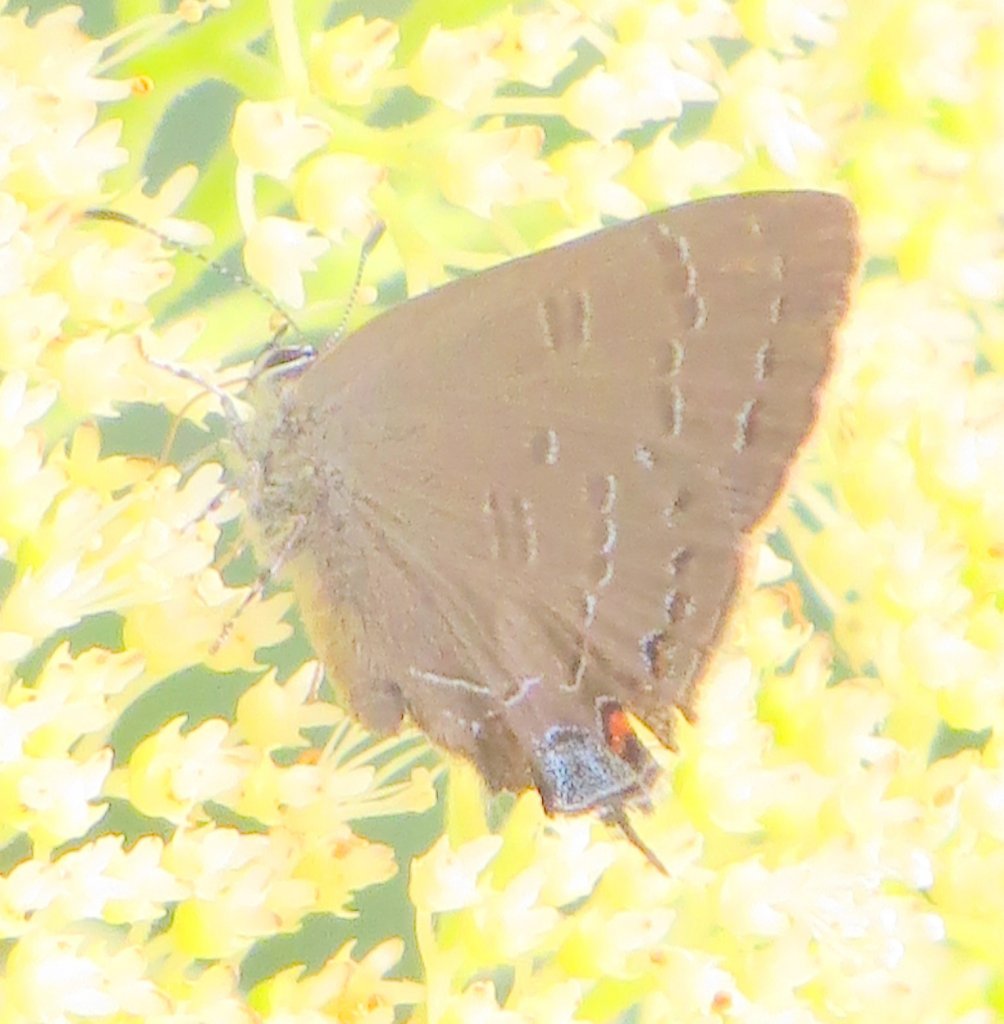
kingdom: Animalia
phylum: Arthropoda
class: Insecta
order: Lepidoptera
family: Lycaenidae
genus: Satyrium
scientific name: Satyrium calanus
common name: Banded Hairstreak
